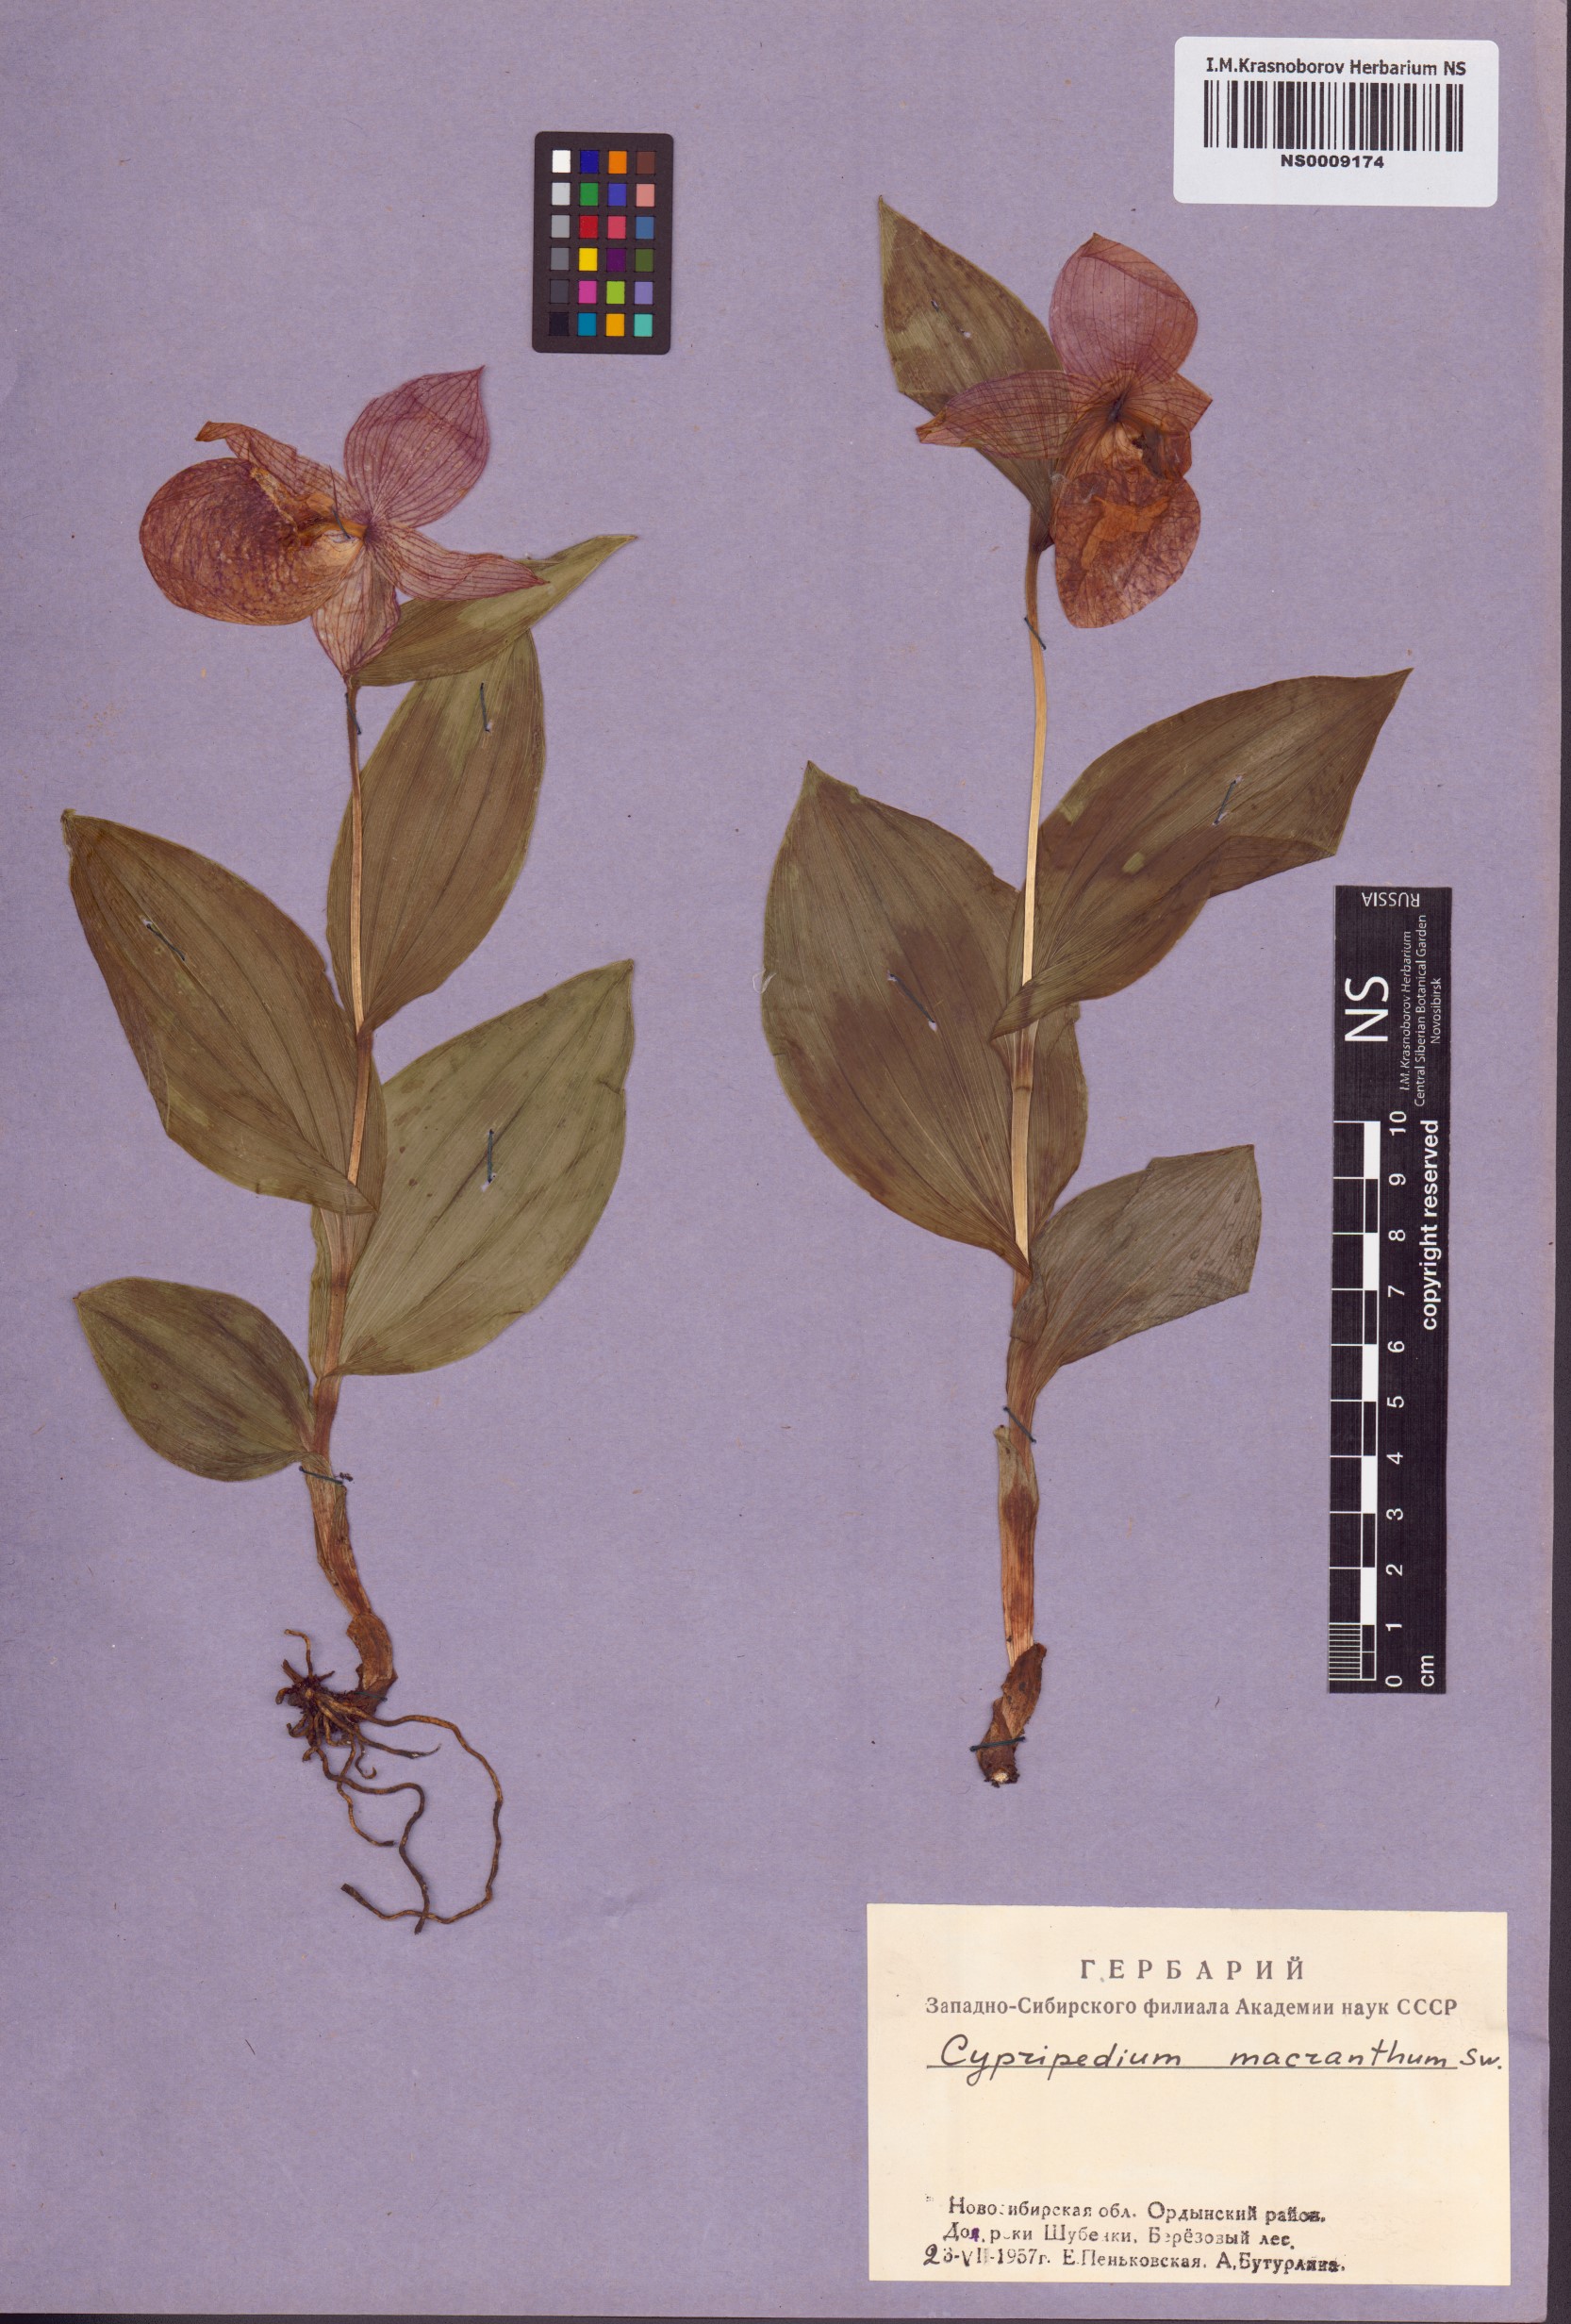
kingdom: Plantae
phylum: Tracheophyta
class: Liliopsida
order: Asparagales
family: Orchidaceae
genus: Cypripedium
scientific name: Cypripedium macranthos
